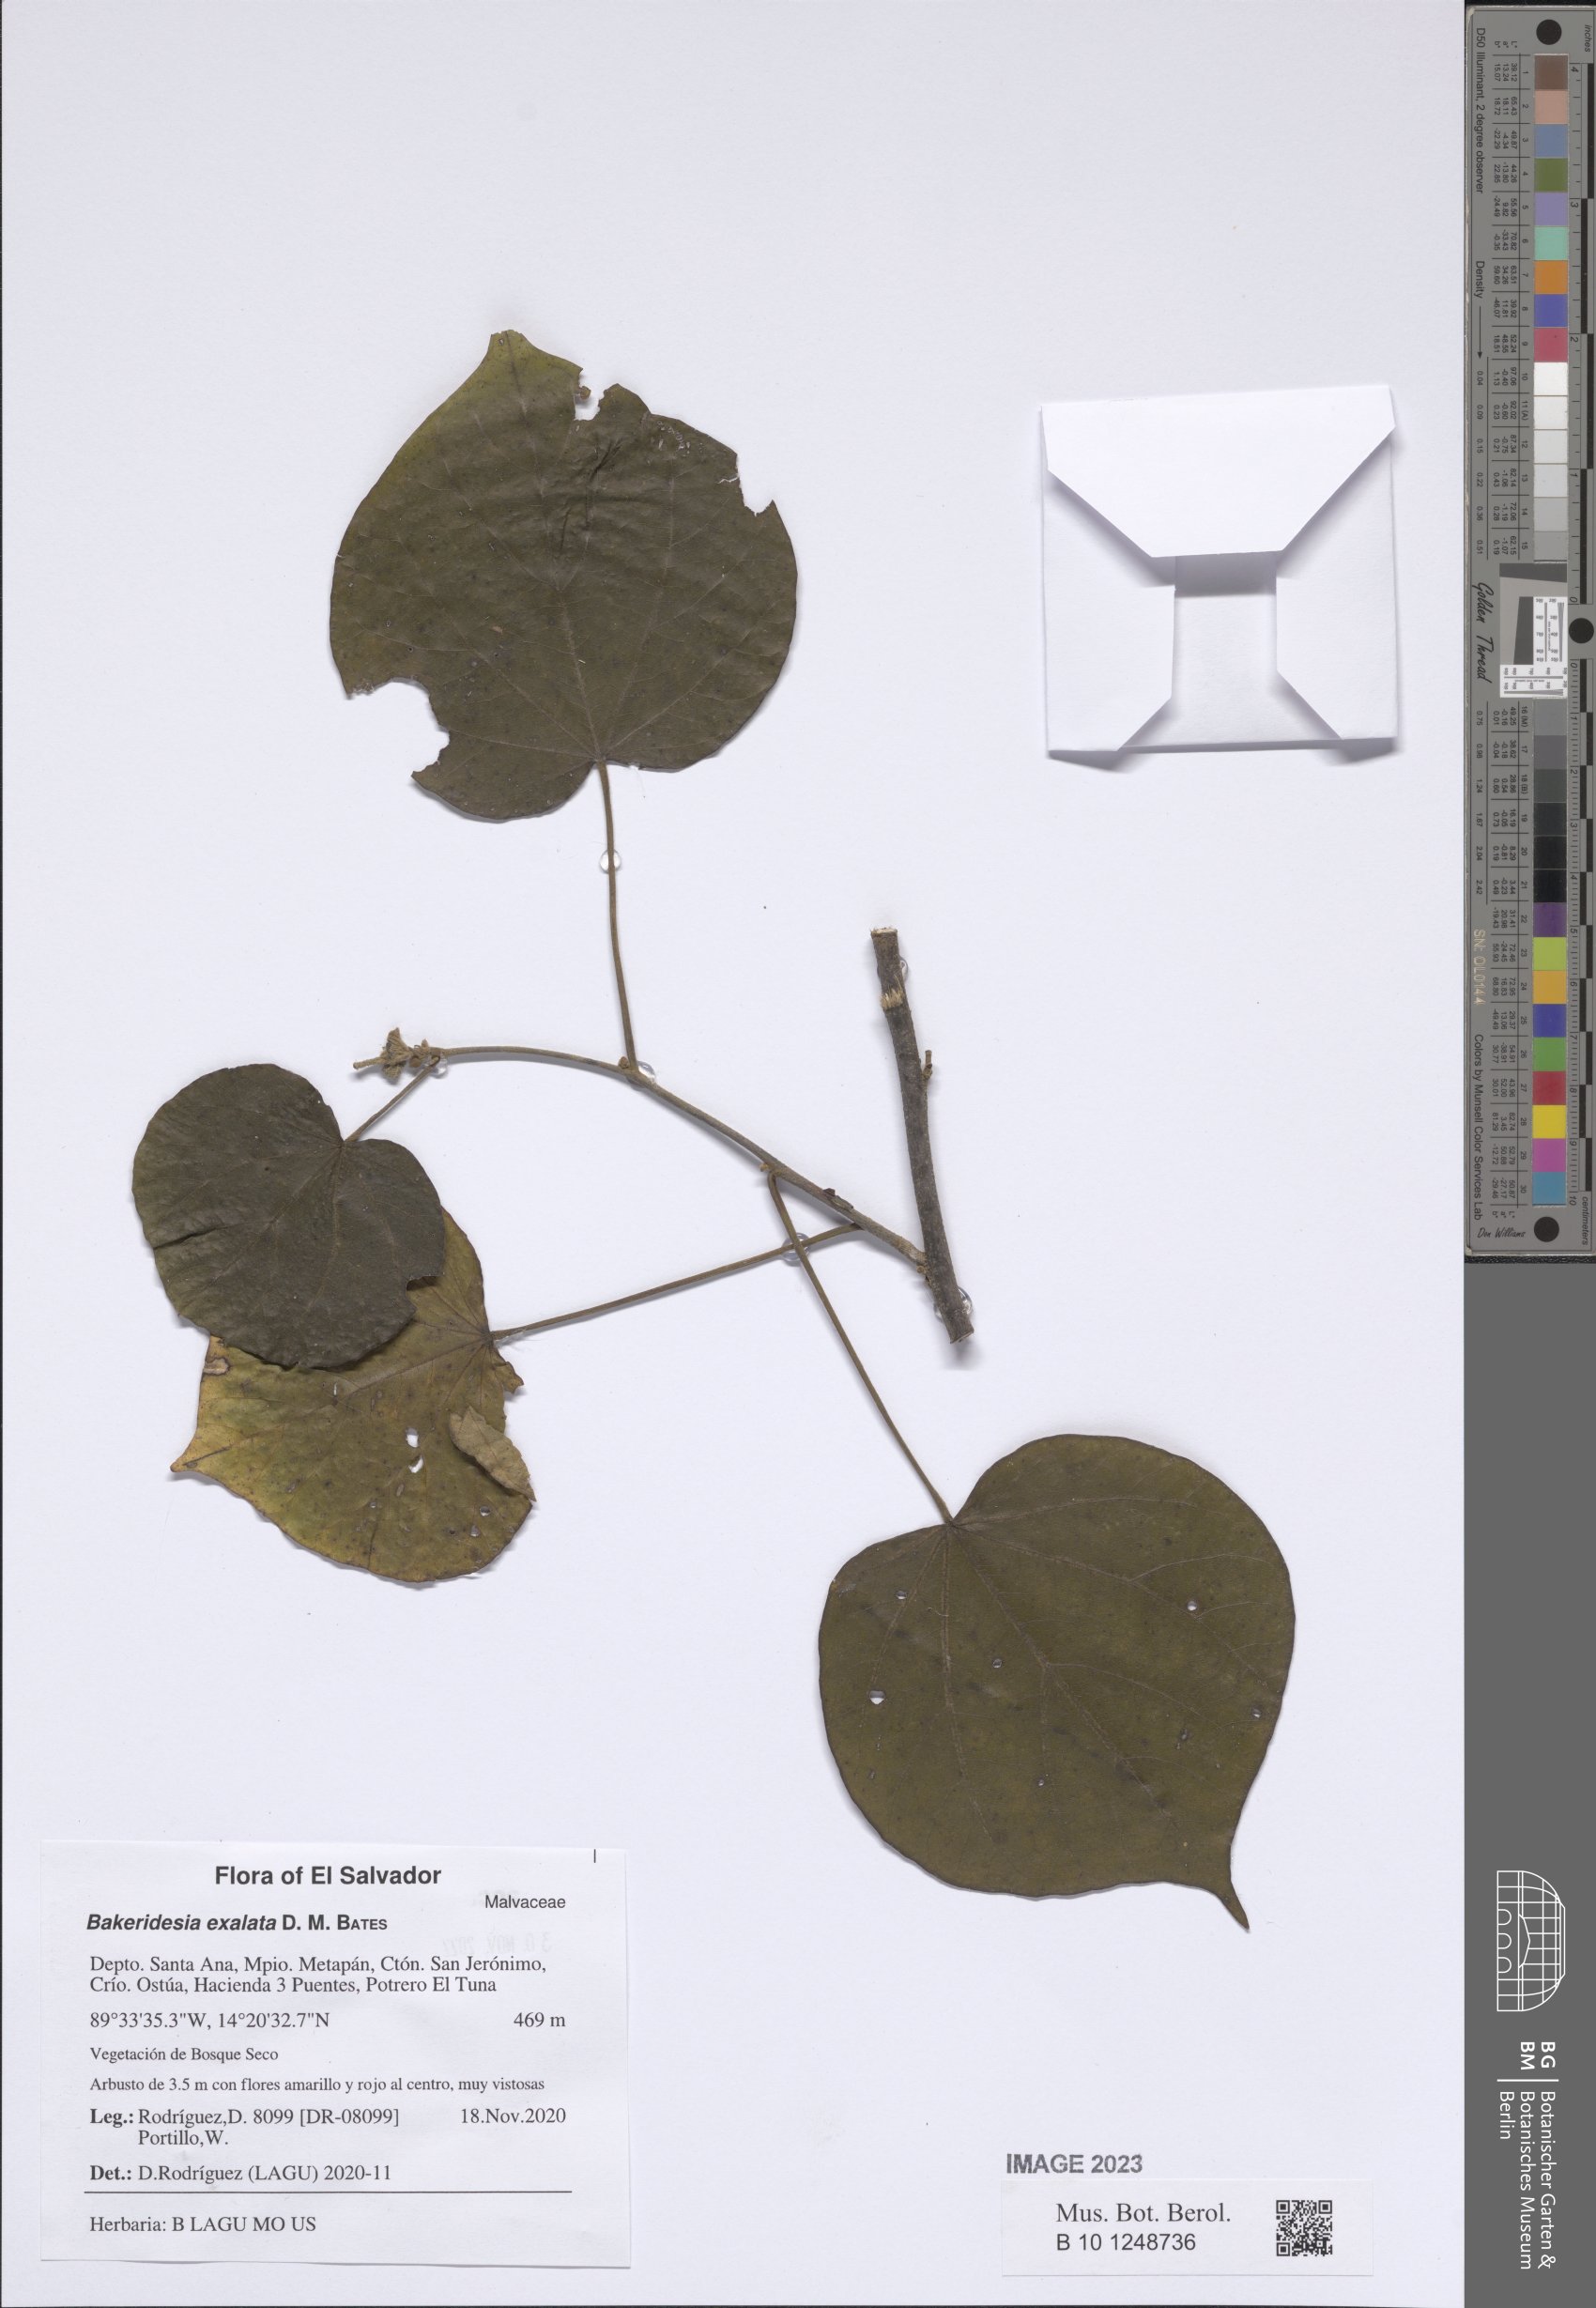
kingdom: Plantae
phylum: Tracheophyta
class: Magnoliopsida
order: Malvales
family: Malvaceae
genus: Bakeridesia
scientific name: Bakeridesia exalata
